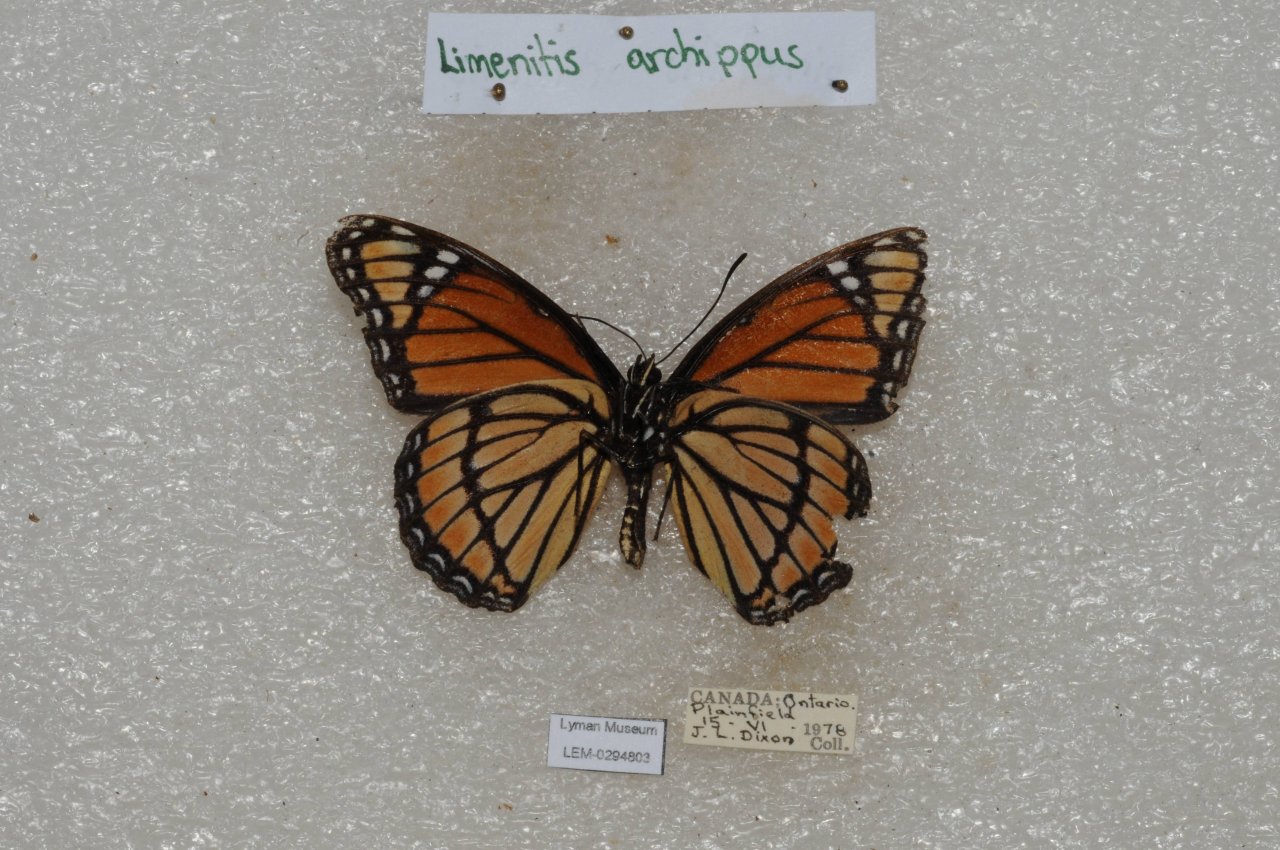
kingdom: Animalia
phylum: Arthropoda
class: Insecta
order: Lepidoptera
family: Nymphalidae
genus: Limenitis
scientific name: Limenitis archippus
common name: Viceroy
